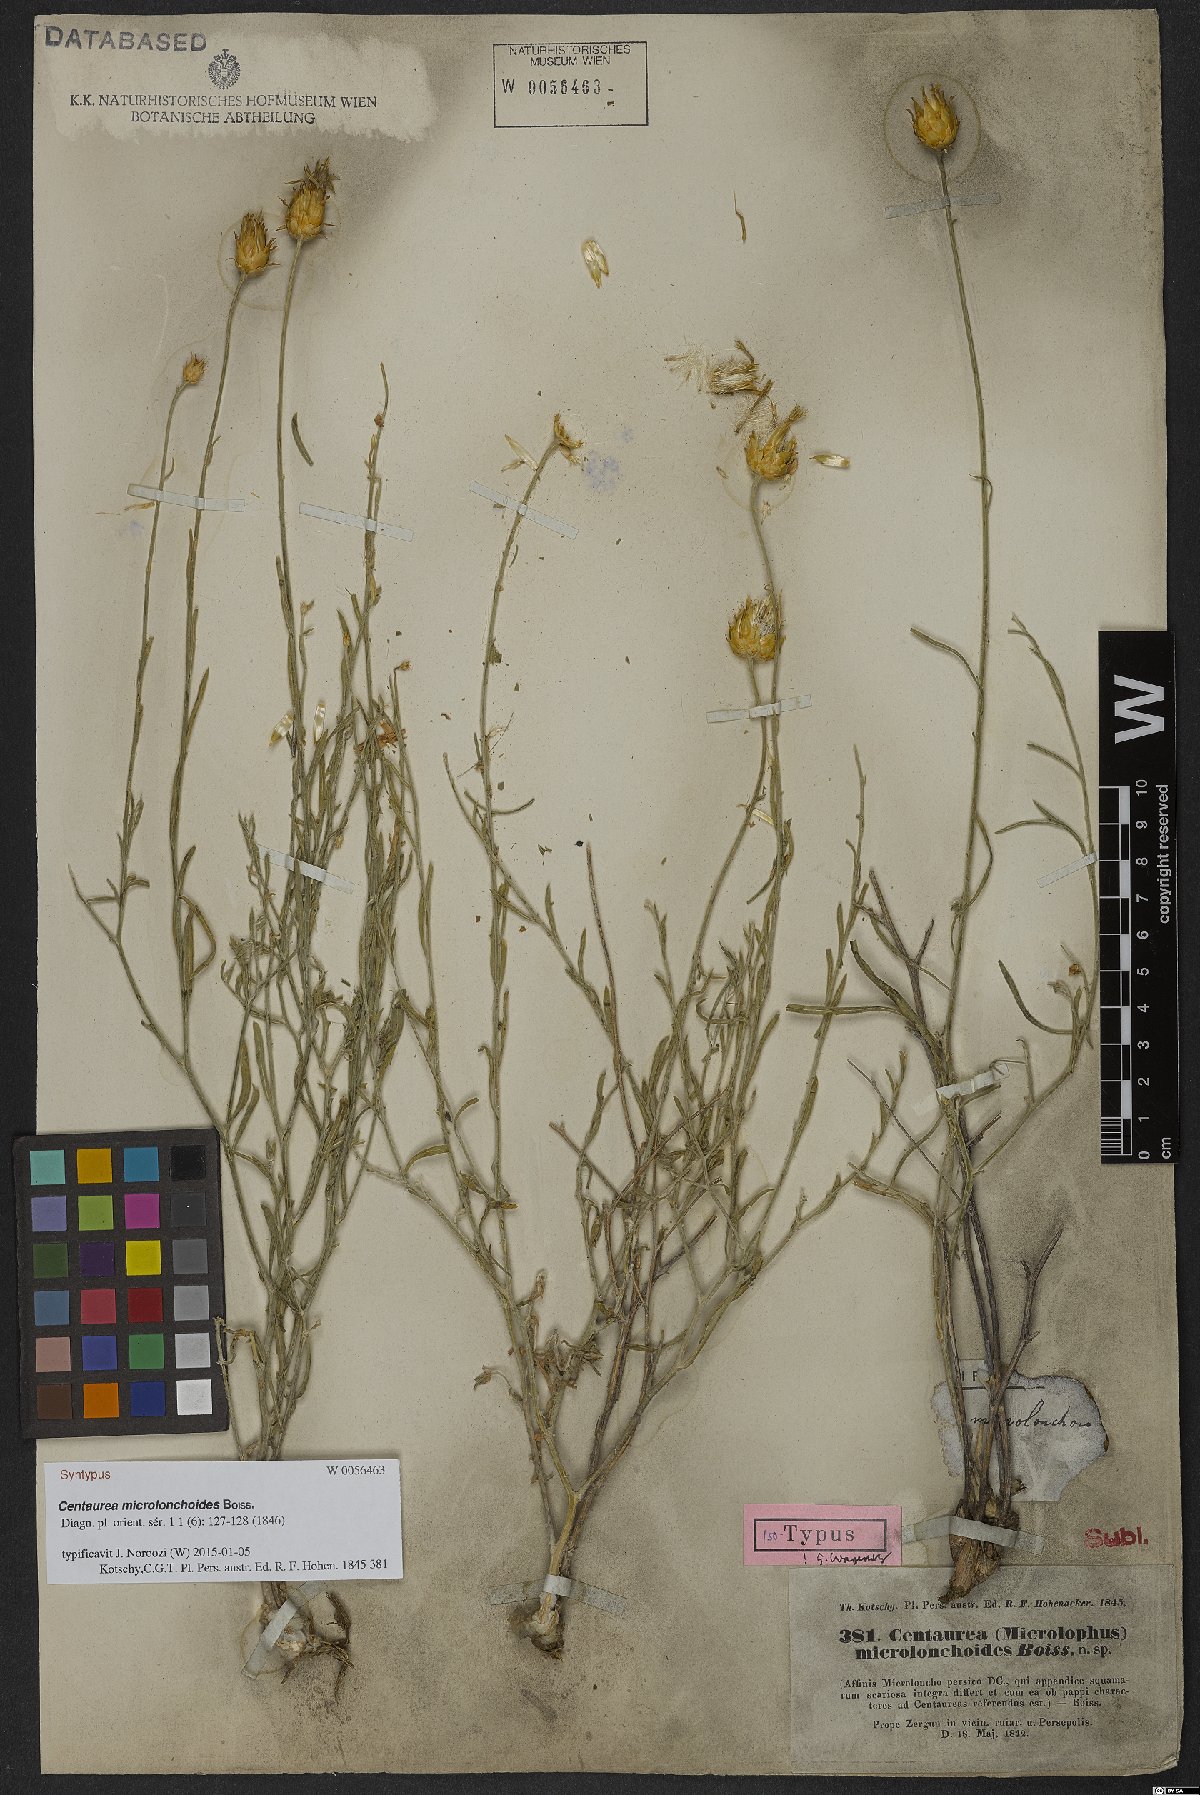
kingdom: Plantae
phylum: Tracheophyta
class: Magnoliopsida
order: Asterales
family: Asteraceae
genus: Centaurea
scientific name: Centaurea microlonchoides
